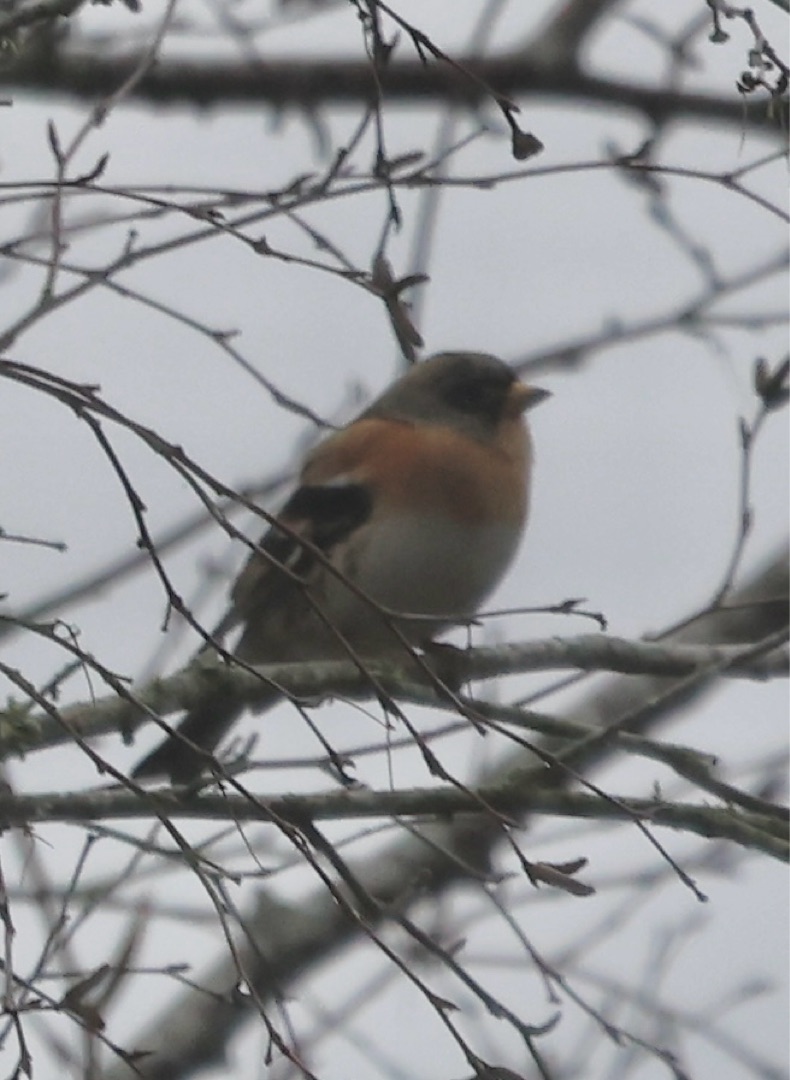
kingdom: Animalia
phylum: Chordata
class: Aves
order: Passeriformes
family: Fringillidae
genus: Fringilla
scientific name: Fringilla montifringilla
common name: Kvækerfinke
